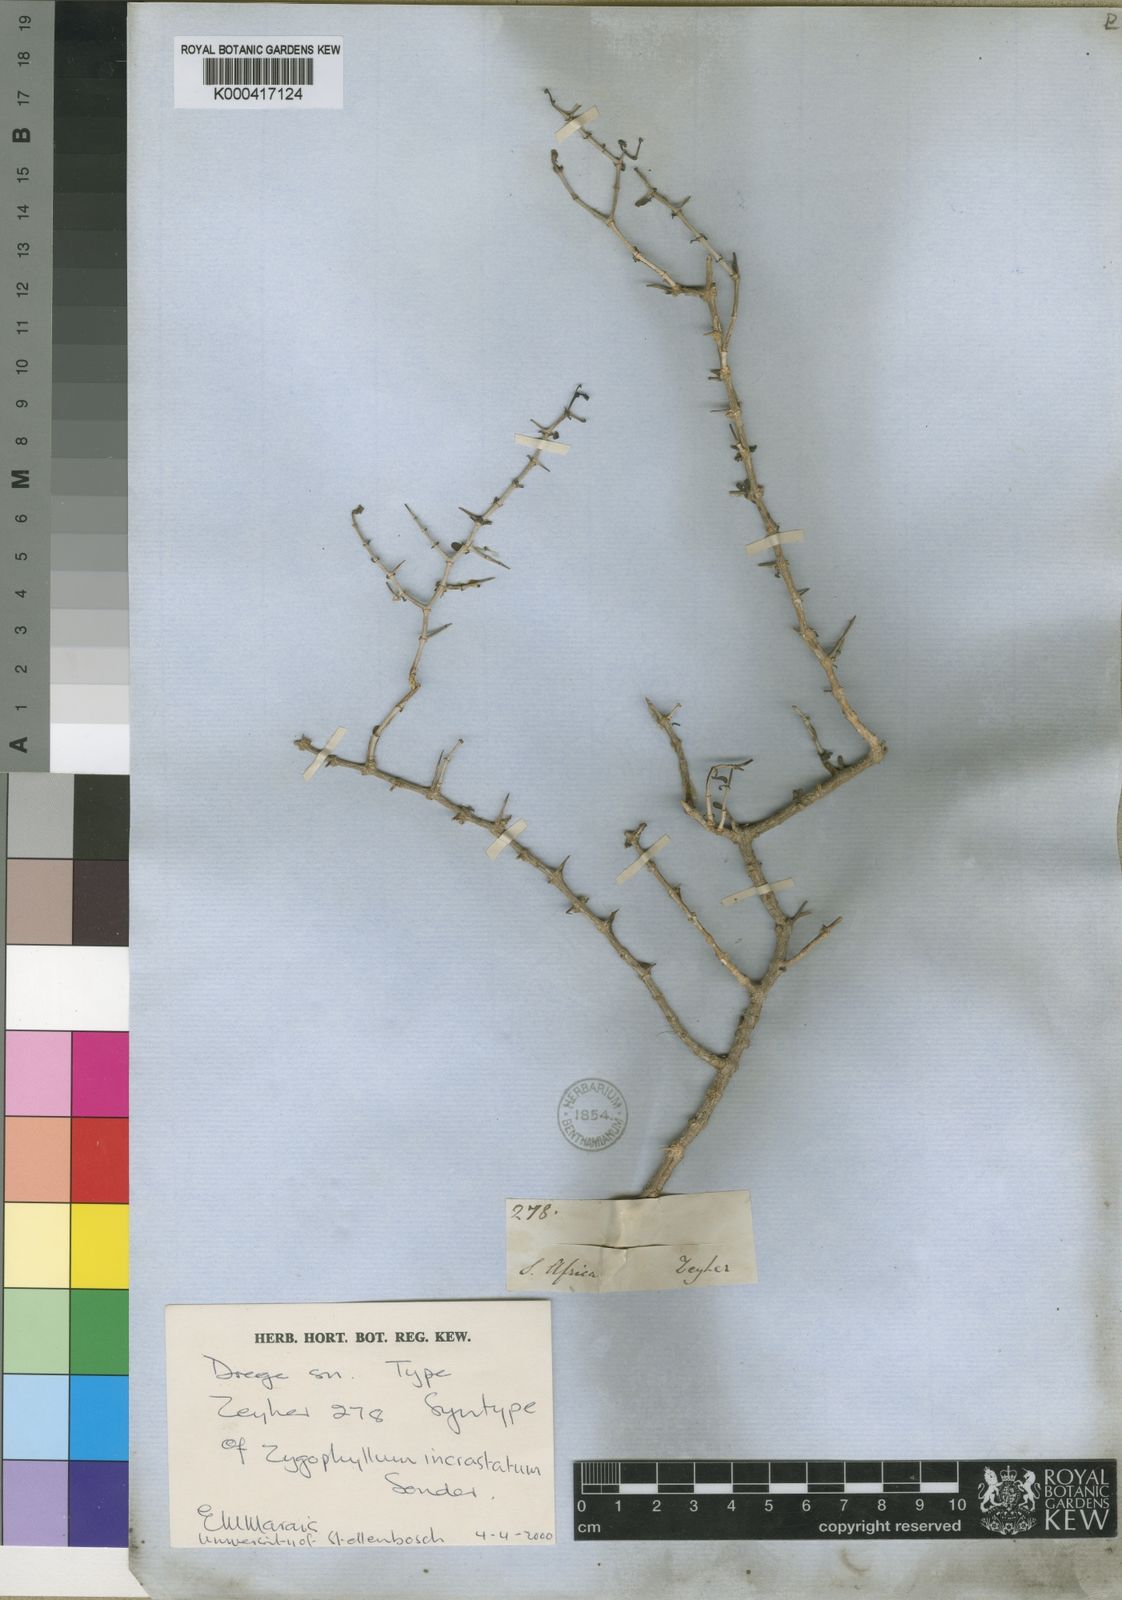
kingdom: Plantae
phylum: Tracheophyta
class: Magnoliopsida
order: Zygophyllales
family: Zygophyllaceae
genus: Roepera
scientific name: Roepera incrustata
